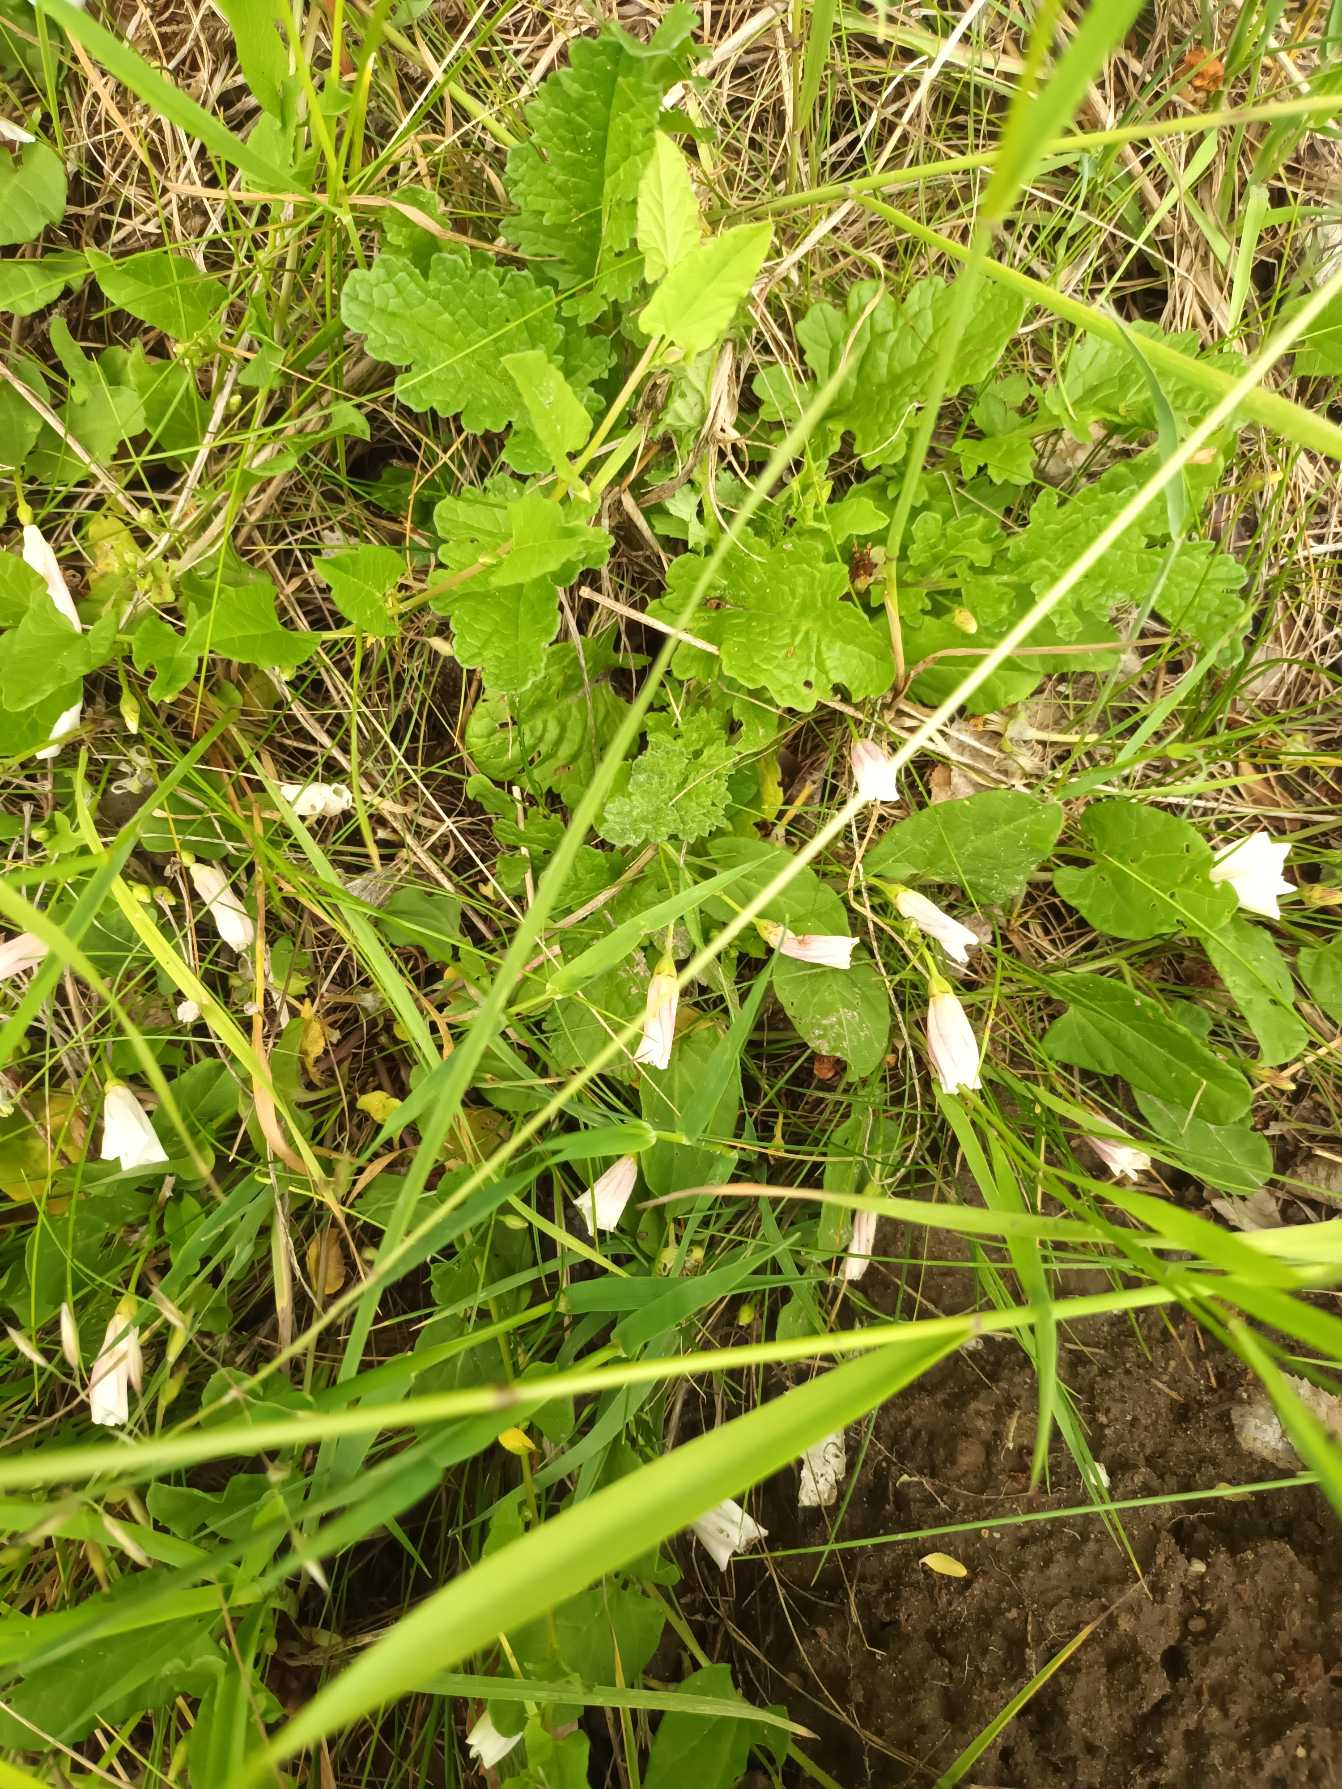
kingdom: Plantae
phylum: Tracheophyta
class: Magnoliopsida
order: Solanales
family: Convolvulaceae
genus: Convolvulus
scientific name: Convolvulus arvensis
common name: Ager-snerle
